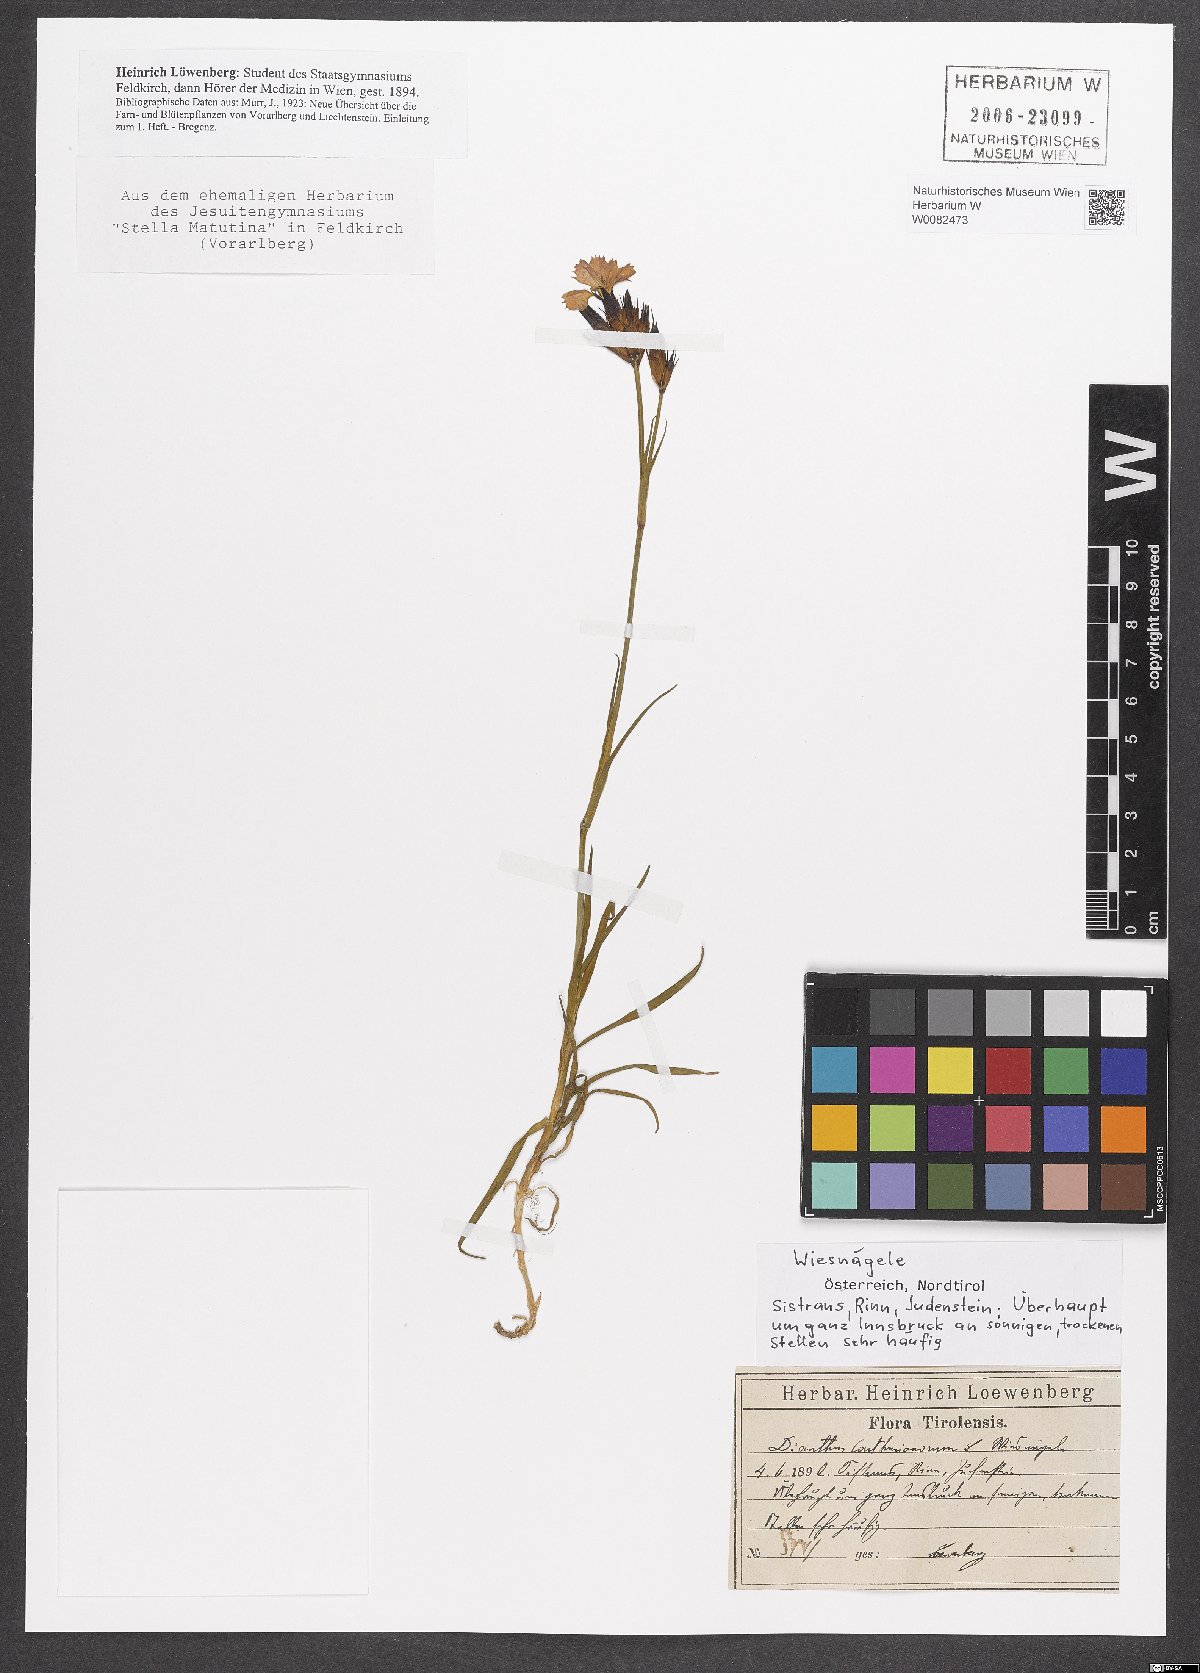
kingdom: Plantae
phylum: Tracheophyta
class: Magnoliopsida
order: Caryophyllales
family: Caryophyllaceae
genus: Dianthus
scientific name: Dianthus carthusianorum
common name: Carthusian pink
